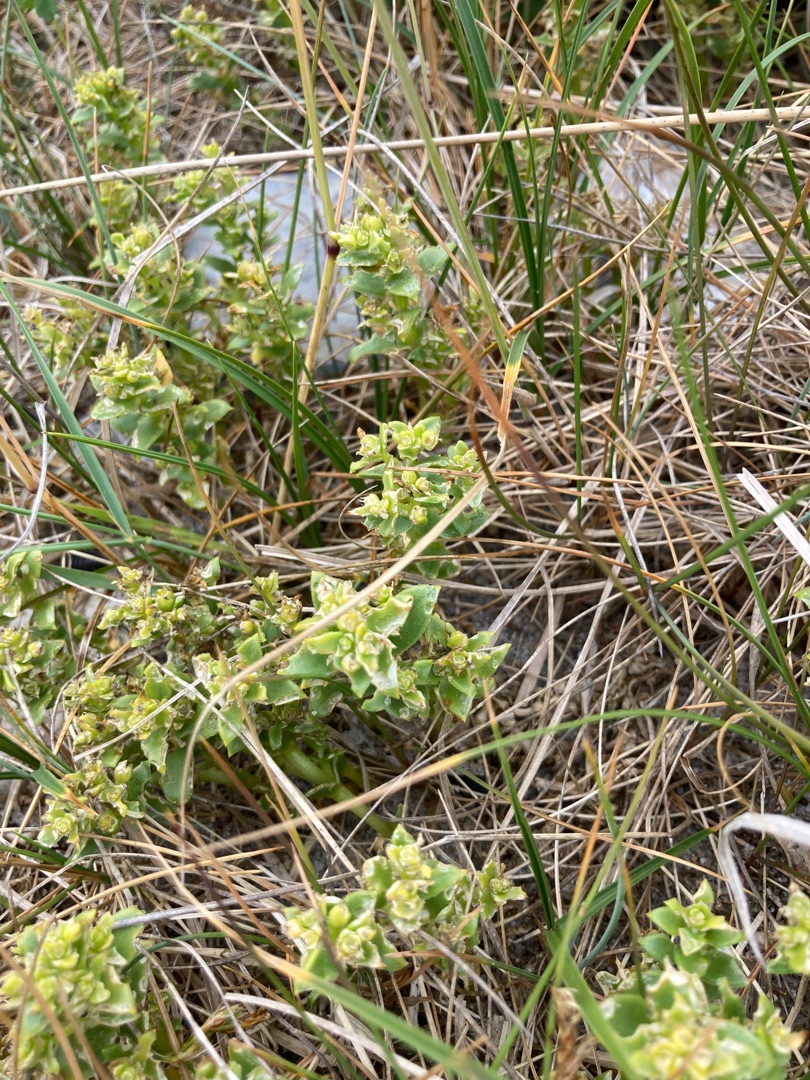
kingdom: Plantae
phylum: Tracheophyta
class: Magnoliopsida
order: Caryophyllales
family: Caryophyllaceae
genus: Honckenya
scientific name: Honckenya peploides
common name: Strandarve
